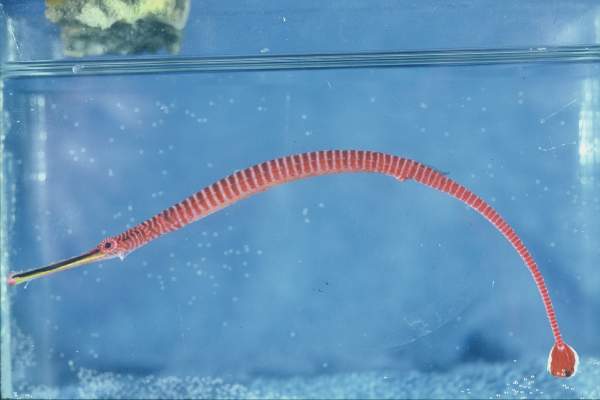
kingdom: Animalia
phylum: Chordata
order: Syngnathiformes
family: Syngnathidae
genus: Dunckerocampus
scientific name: Dunckerocampus multiannulatus
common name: Many-banded pipefish
